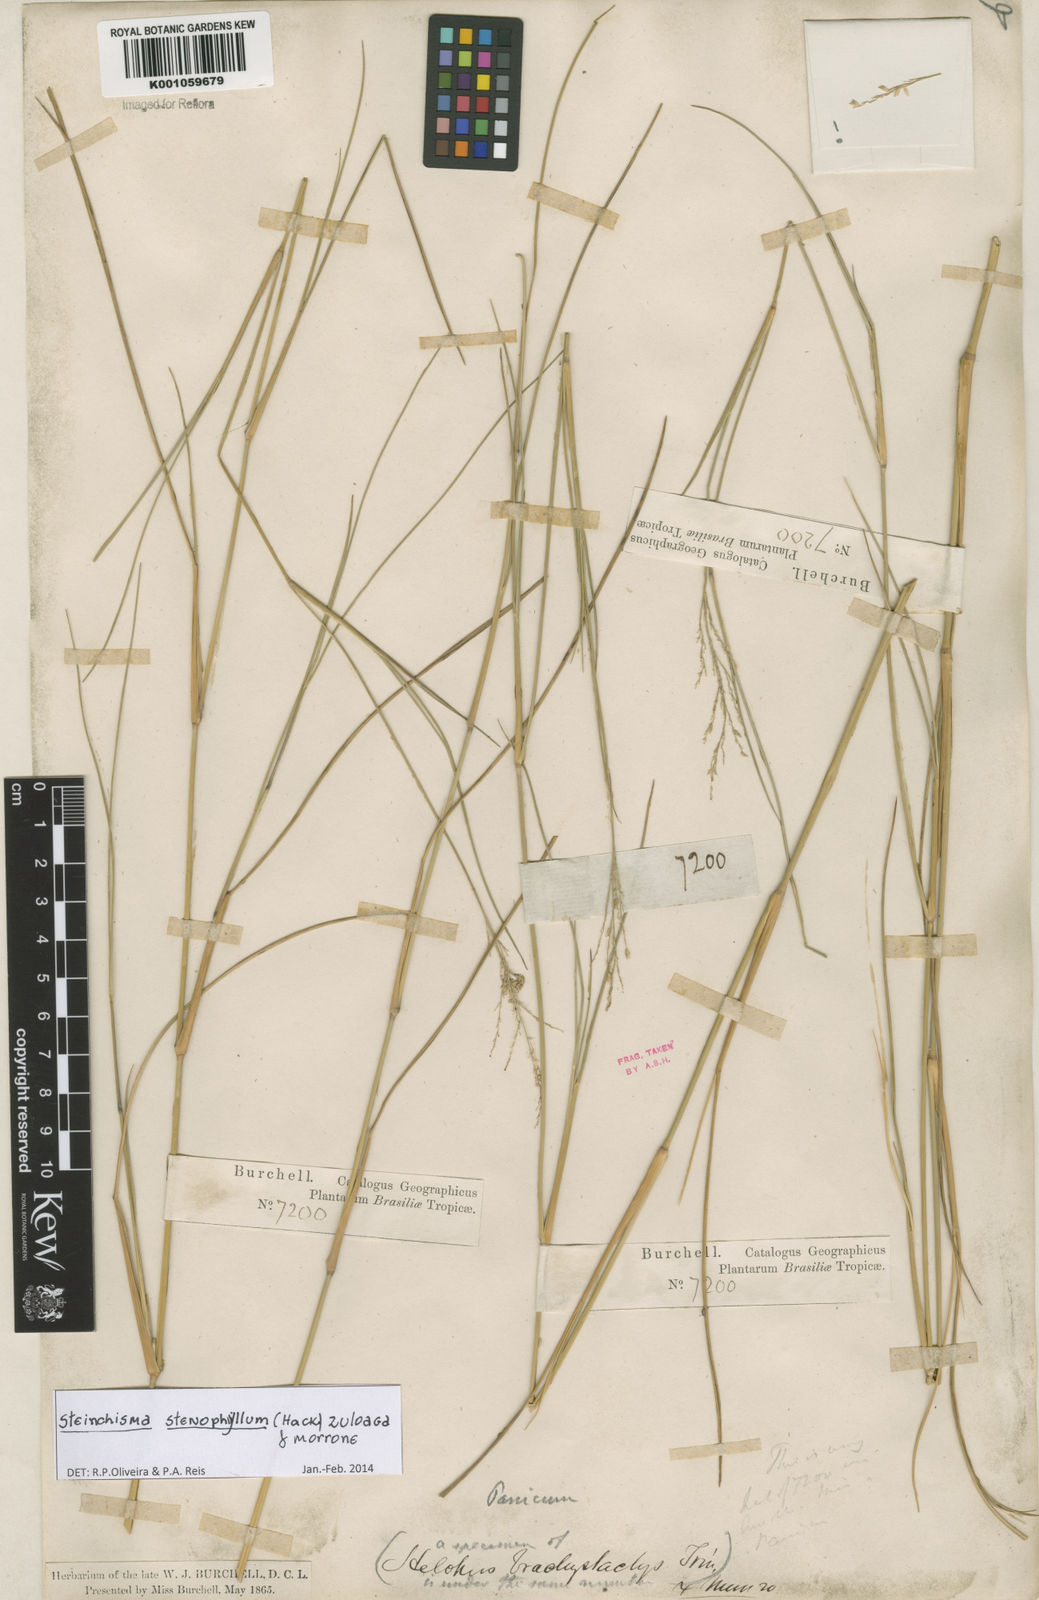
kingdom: Plantae
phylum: Tracheophyta
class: Liliopsida
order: Poales
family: Poaceae
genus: Steinchisma
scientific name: Steinchisma stenophyllum
